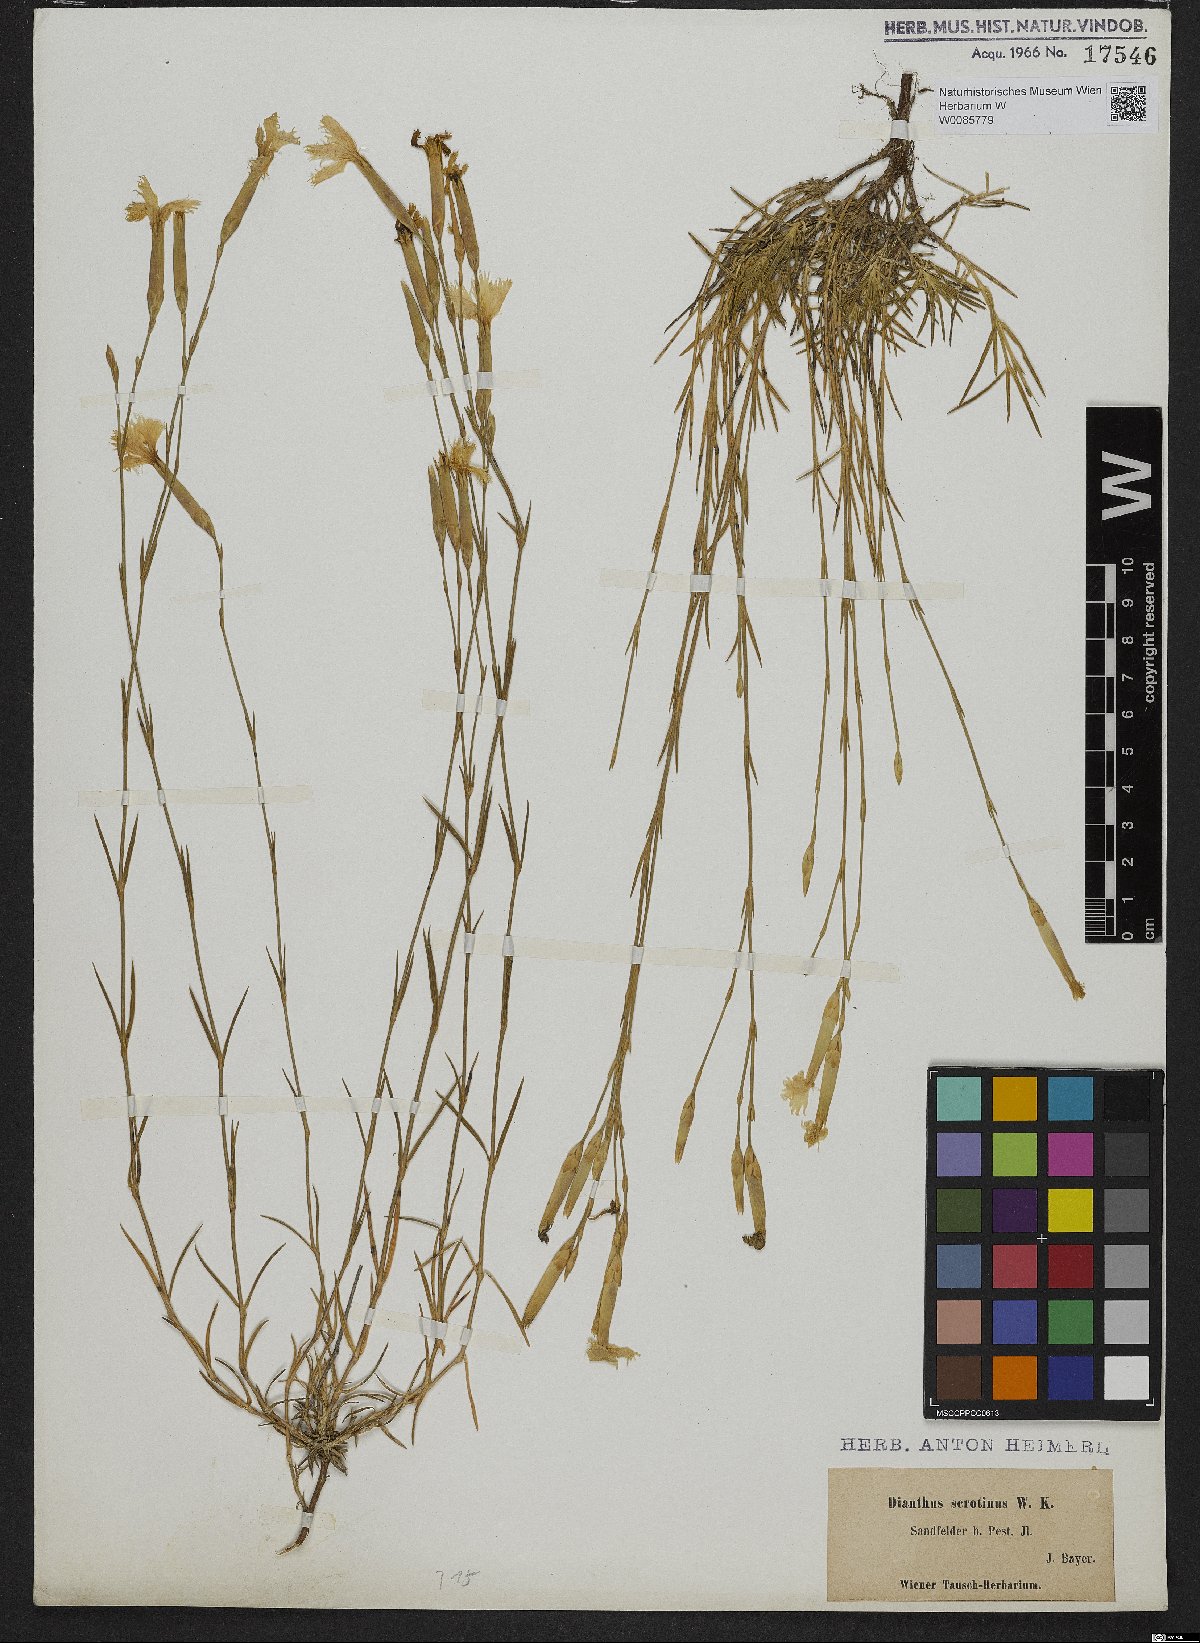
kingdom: Plantae
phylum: Tracheophyta
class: Magnoliopsida
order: Caryophyllales
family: Caryophyllaceae
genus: Dianthus
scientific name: Dianthus serotinus
